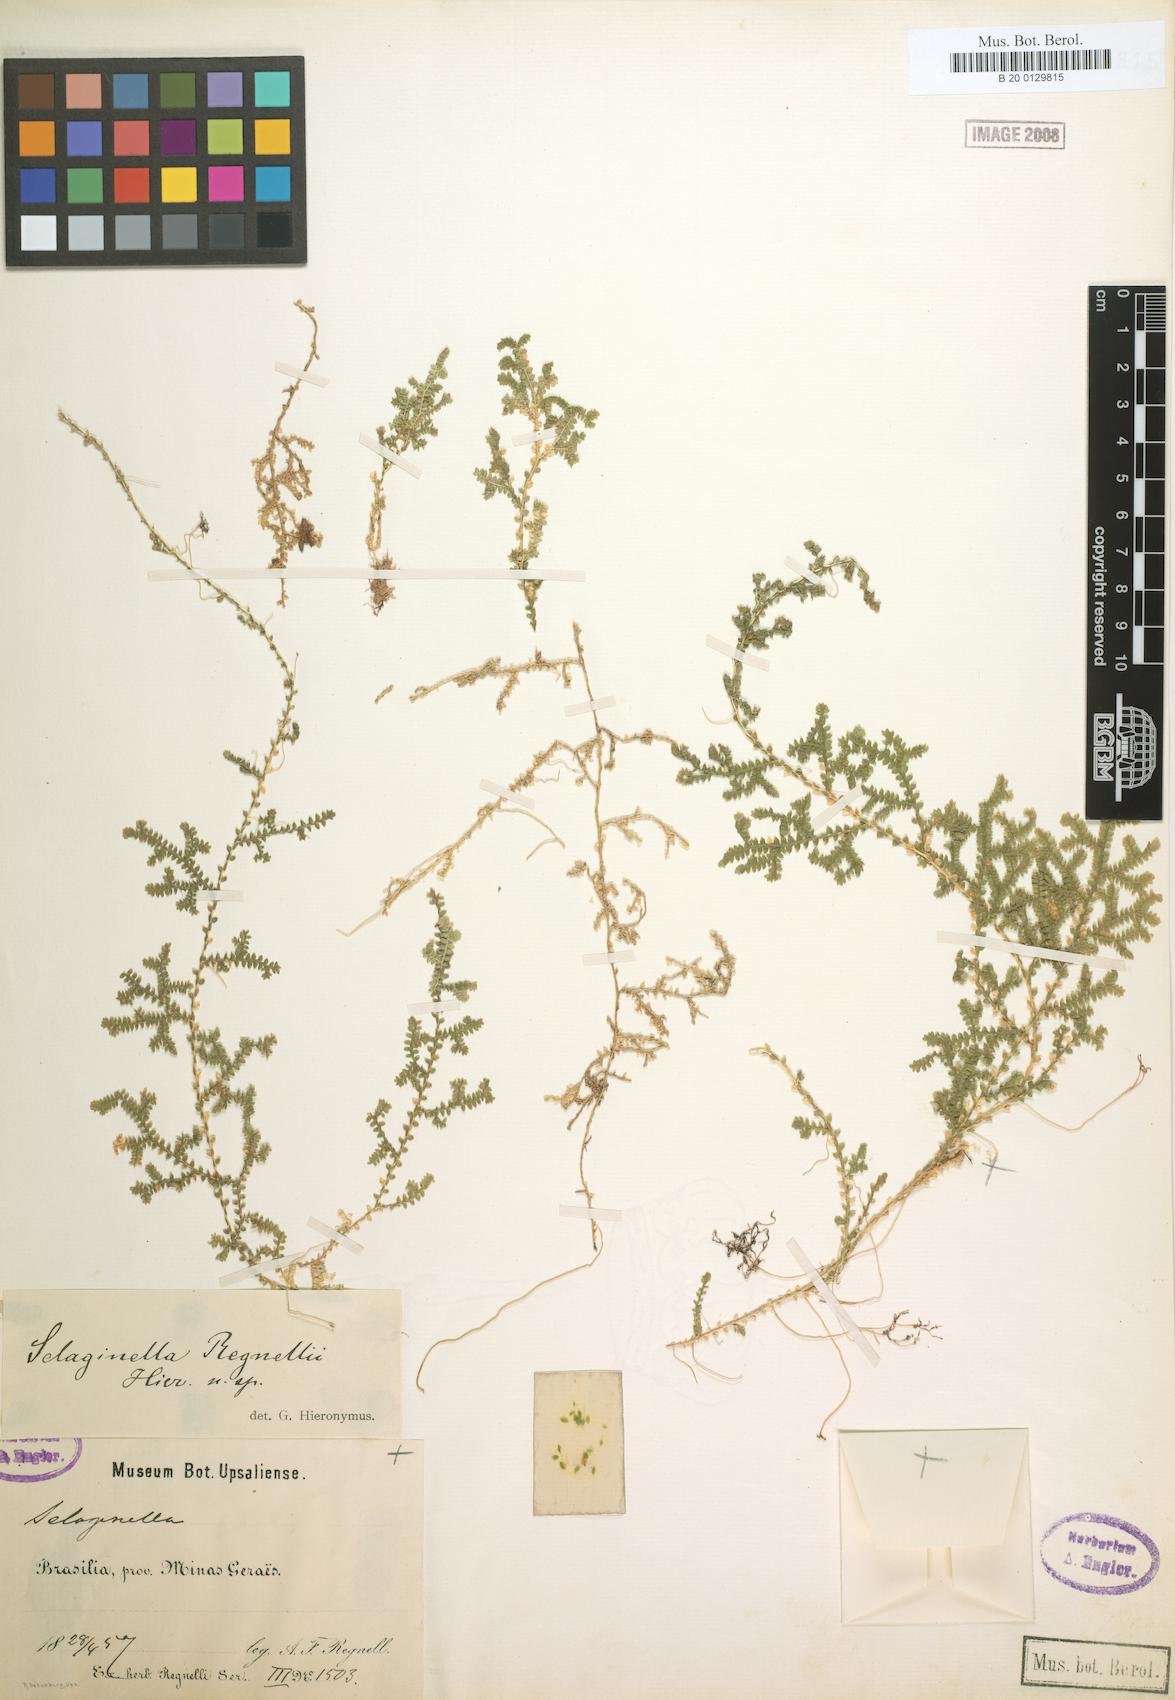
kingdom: Plantae
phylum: Tracheophyta
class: Lycopodiopsida
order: Selaginellales
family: Selaginellaceae
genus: Selaginella
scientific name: Selaginella
